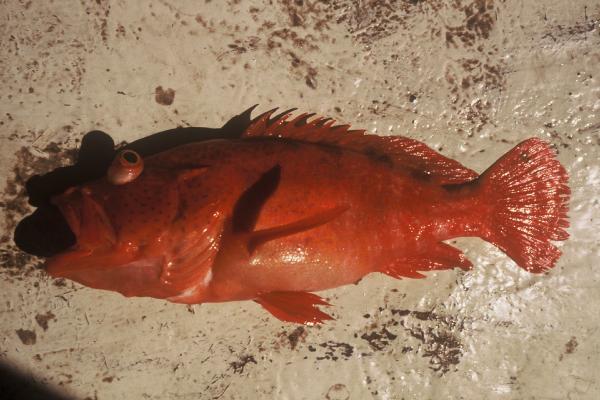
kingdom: Animalia
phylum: Chordata
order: Perciformes
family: Serranidae
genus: Cephalopholis
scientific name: Cephalopholis sexmaculata
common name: Sixblotch hind
